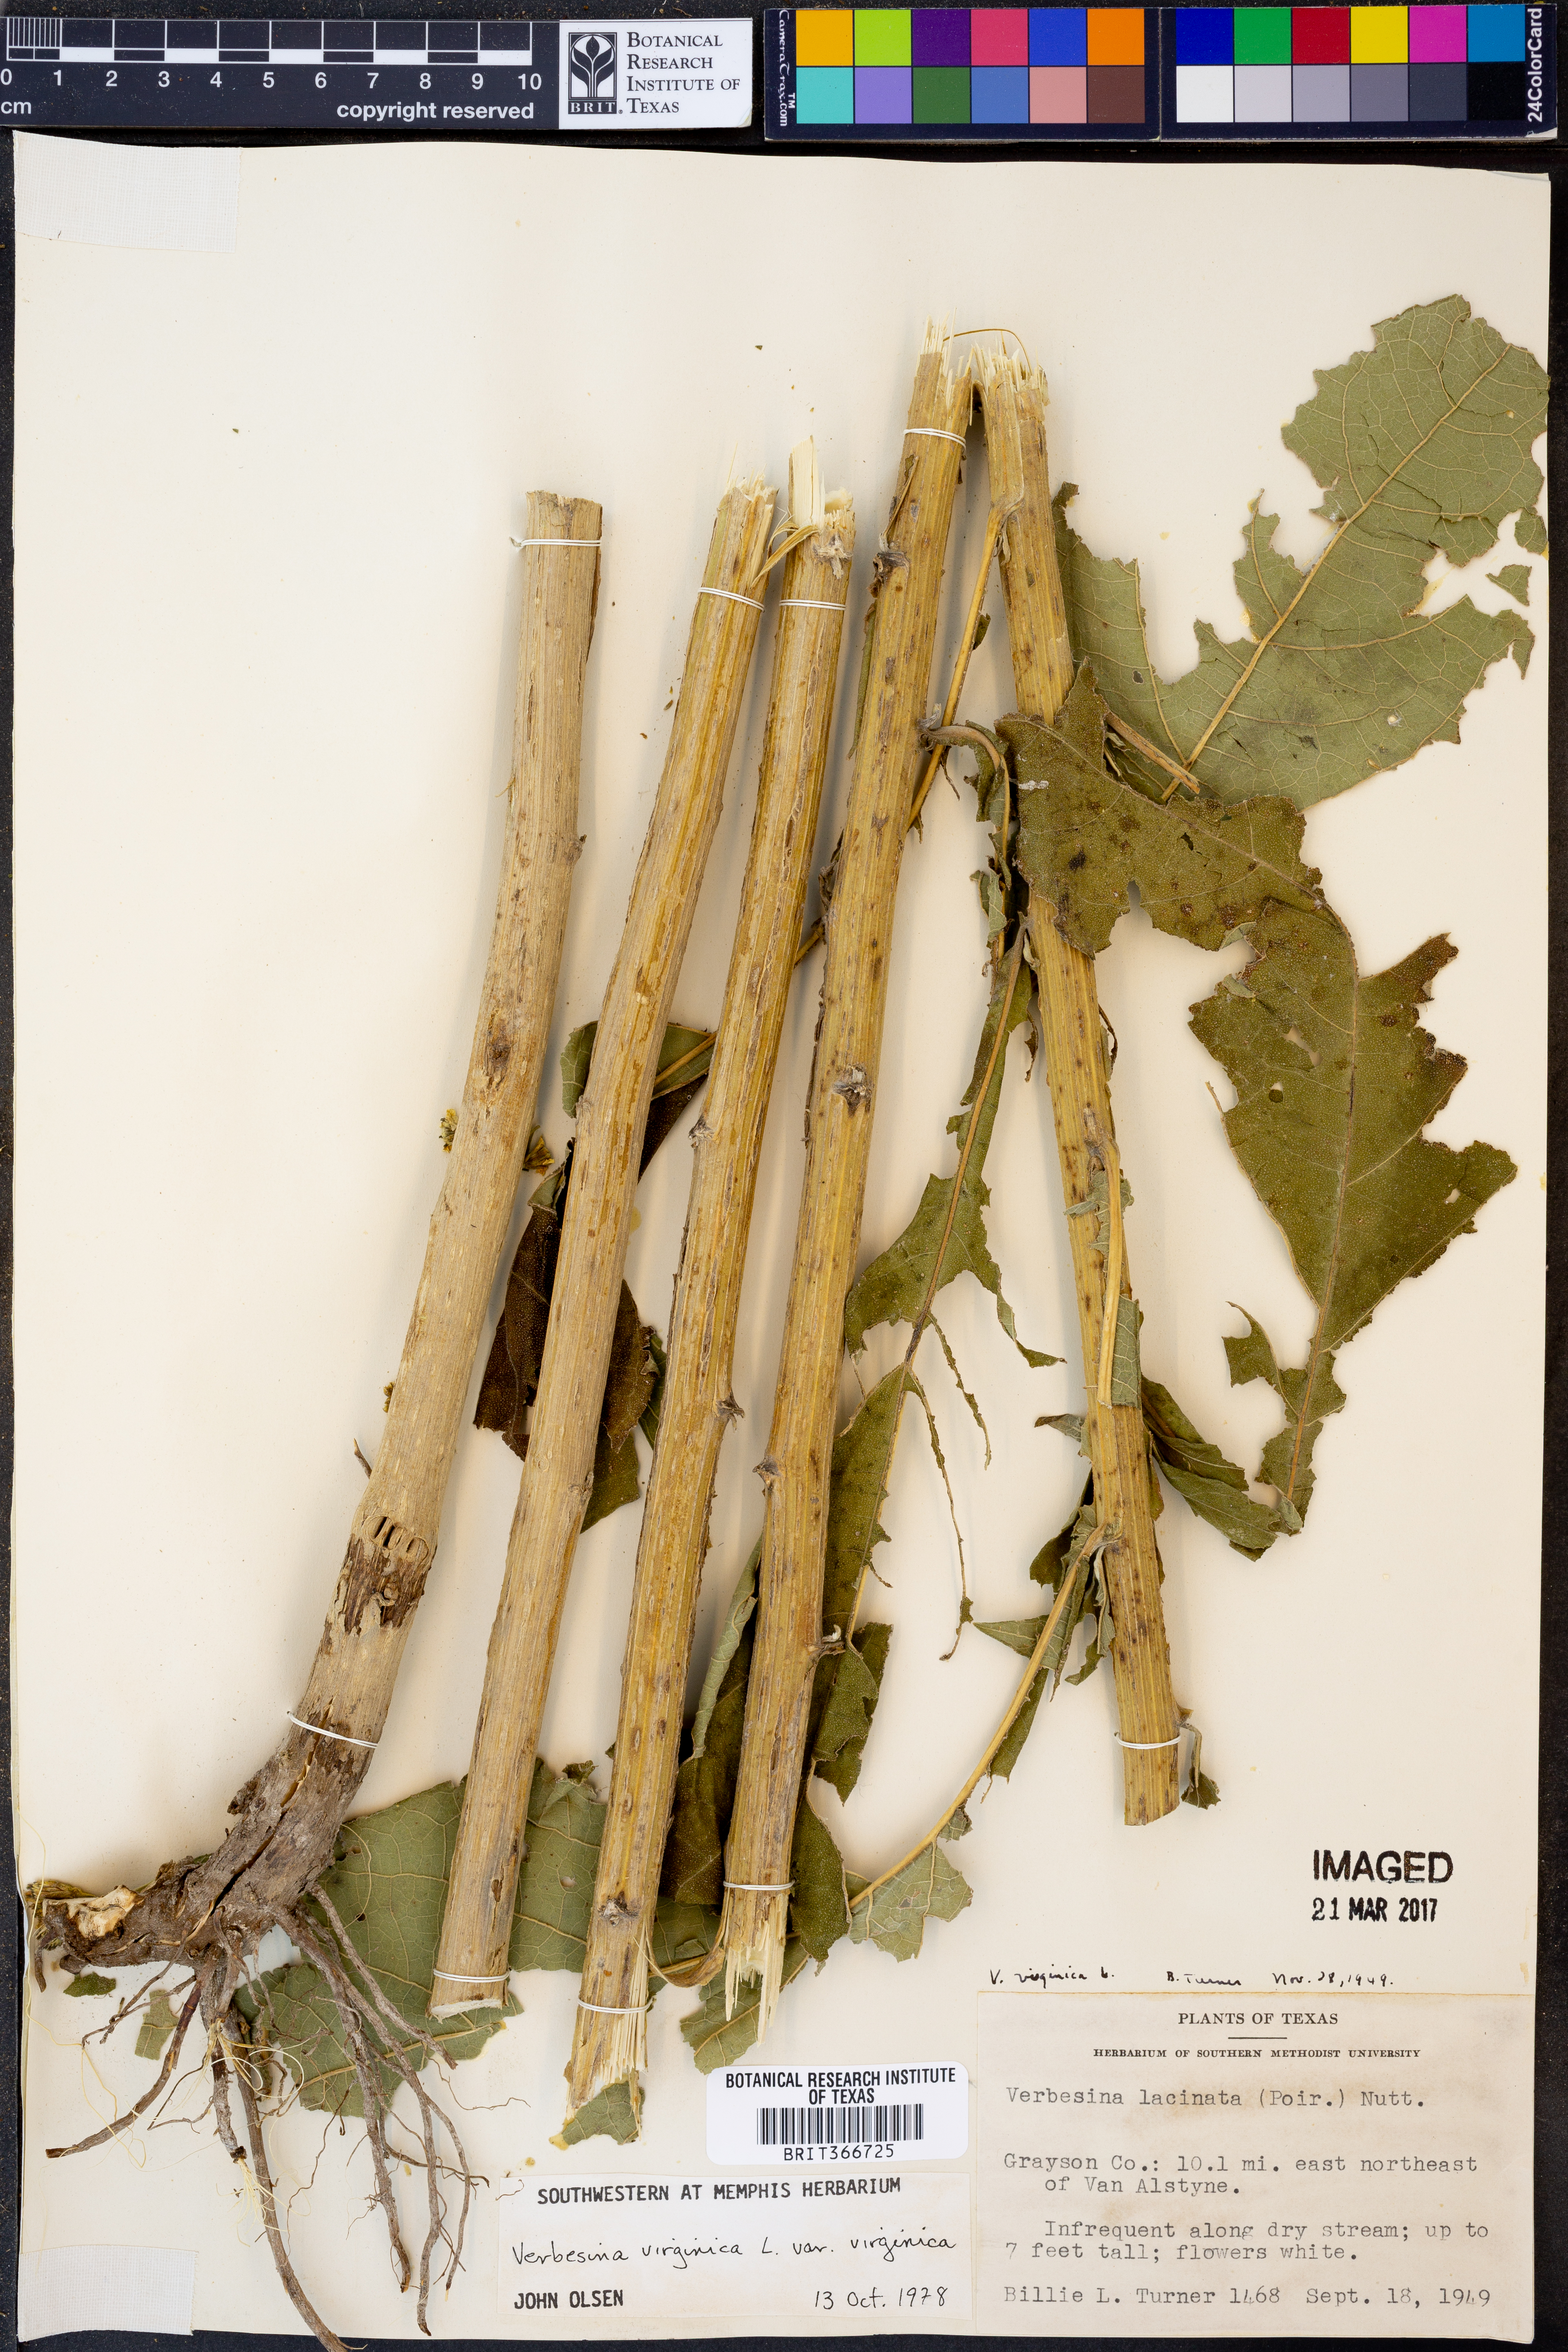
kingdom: Plantae
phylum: Tracheophyta
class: Magnoliopsida
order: Asterales
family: Asteraceae
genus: Verbesina
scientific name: Verbesina virginica
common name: Frostweed
